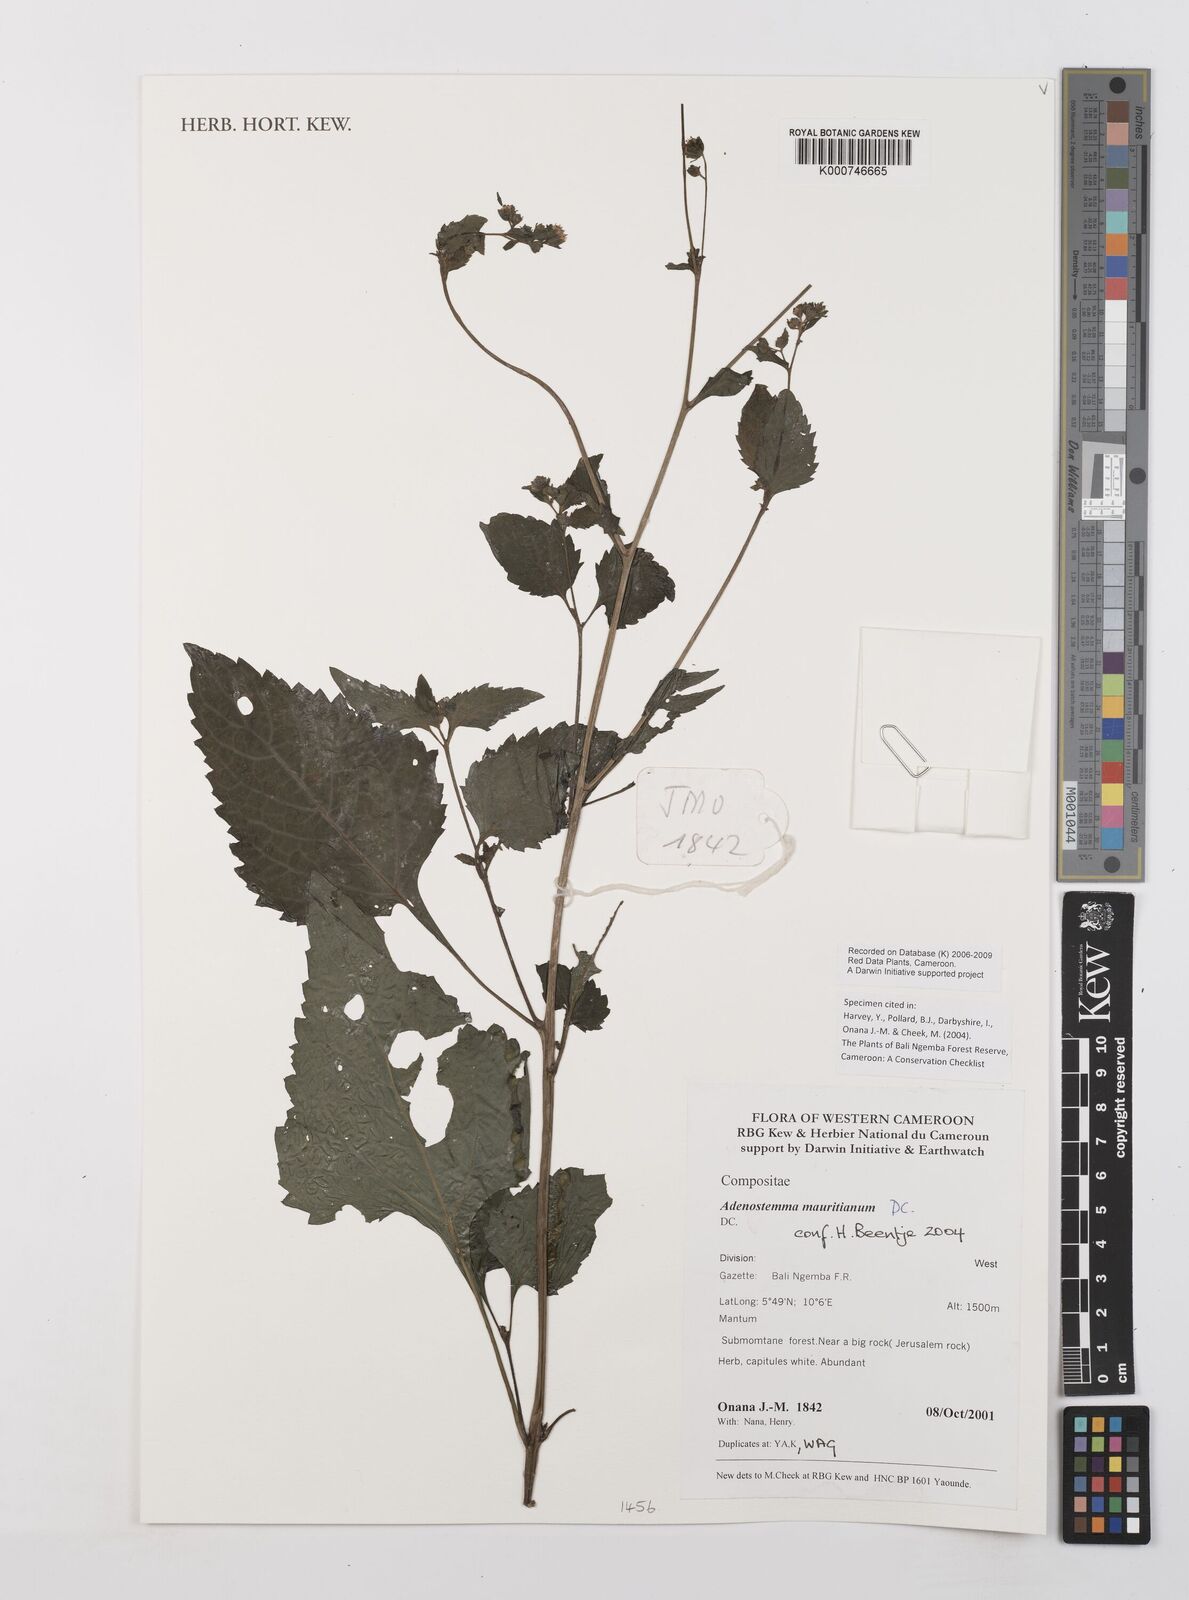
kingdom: Plantae
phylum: Tracheophyta
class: Magnoliopsida
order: Asterales
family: Asteraceae
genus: Adenostemma
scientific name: Adenostemma mauritianum
